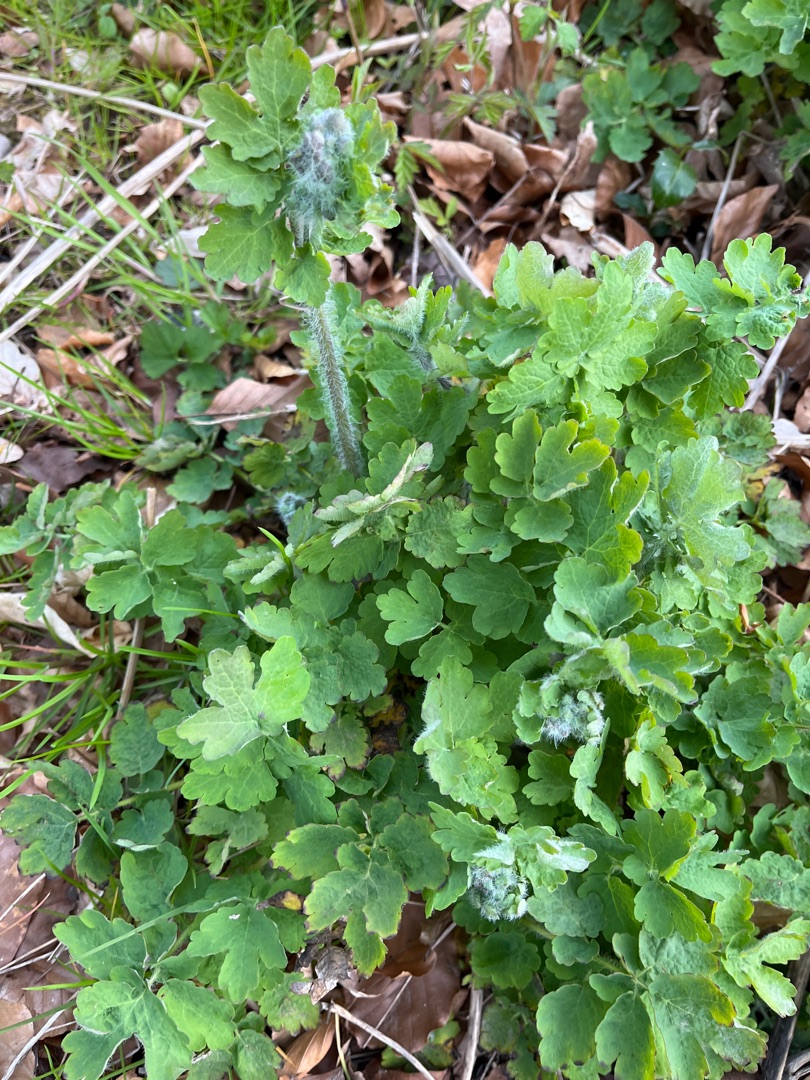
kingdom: Plantae
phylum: Tracheophyta
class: Magnoliopsida
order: Ranunculales
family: Papaveraceae
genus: Chelidonium
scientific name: Chelidonium majus
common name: Svaleurt
